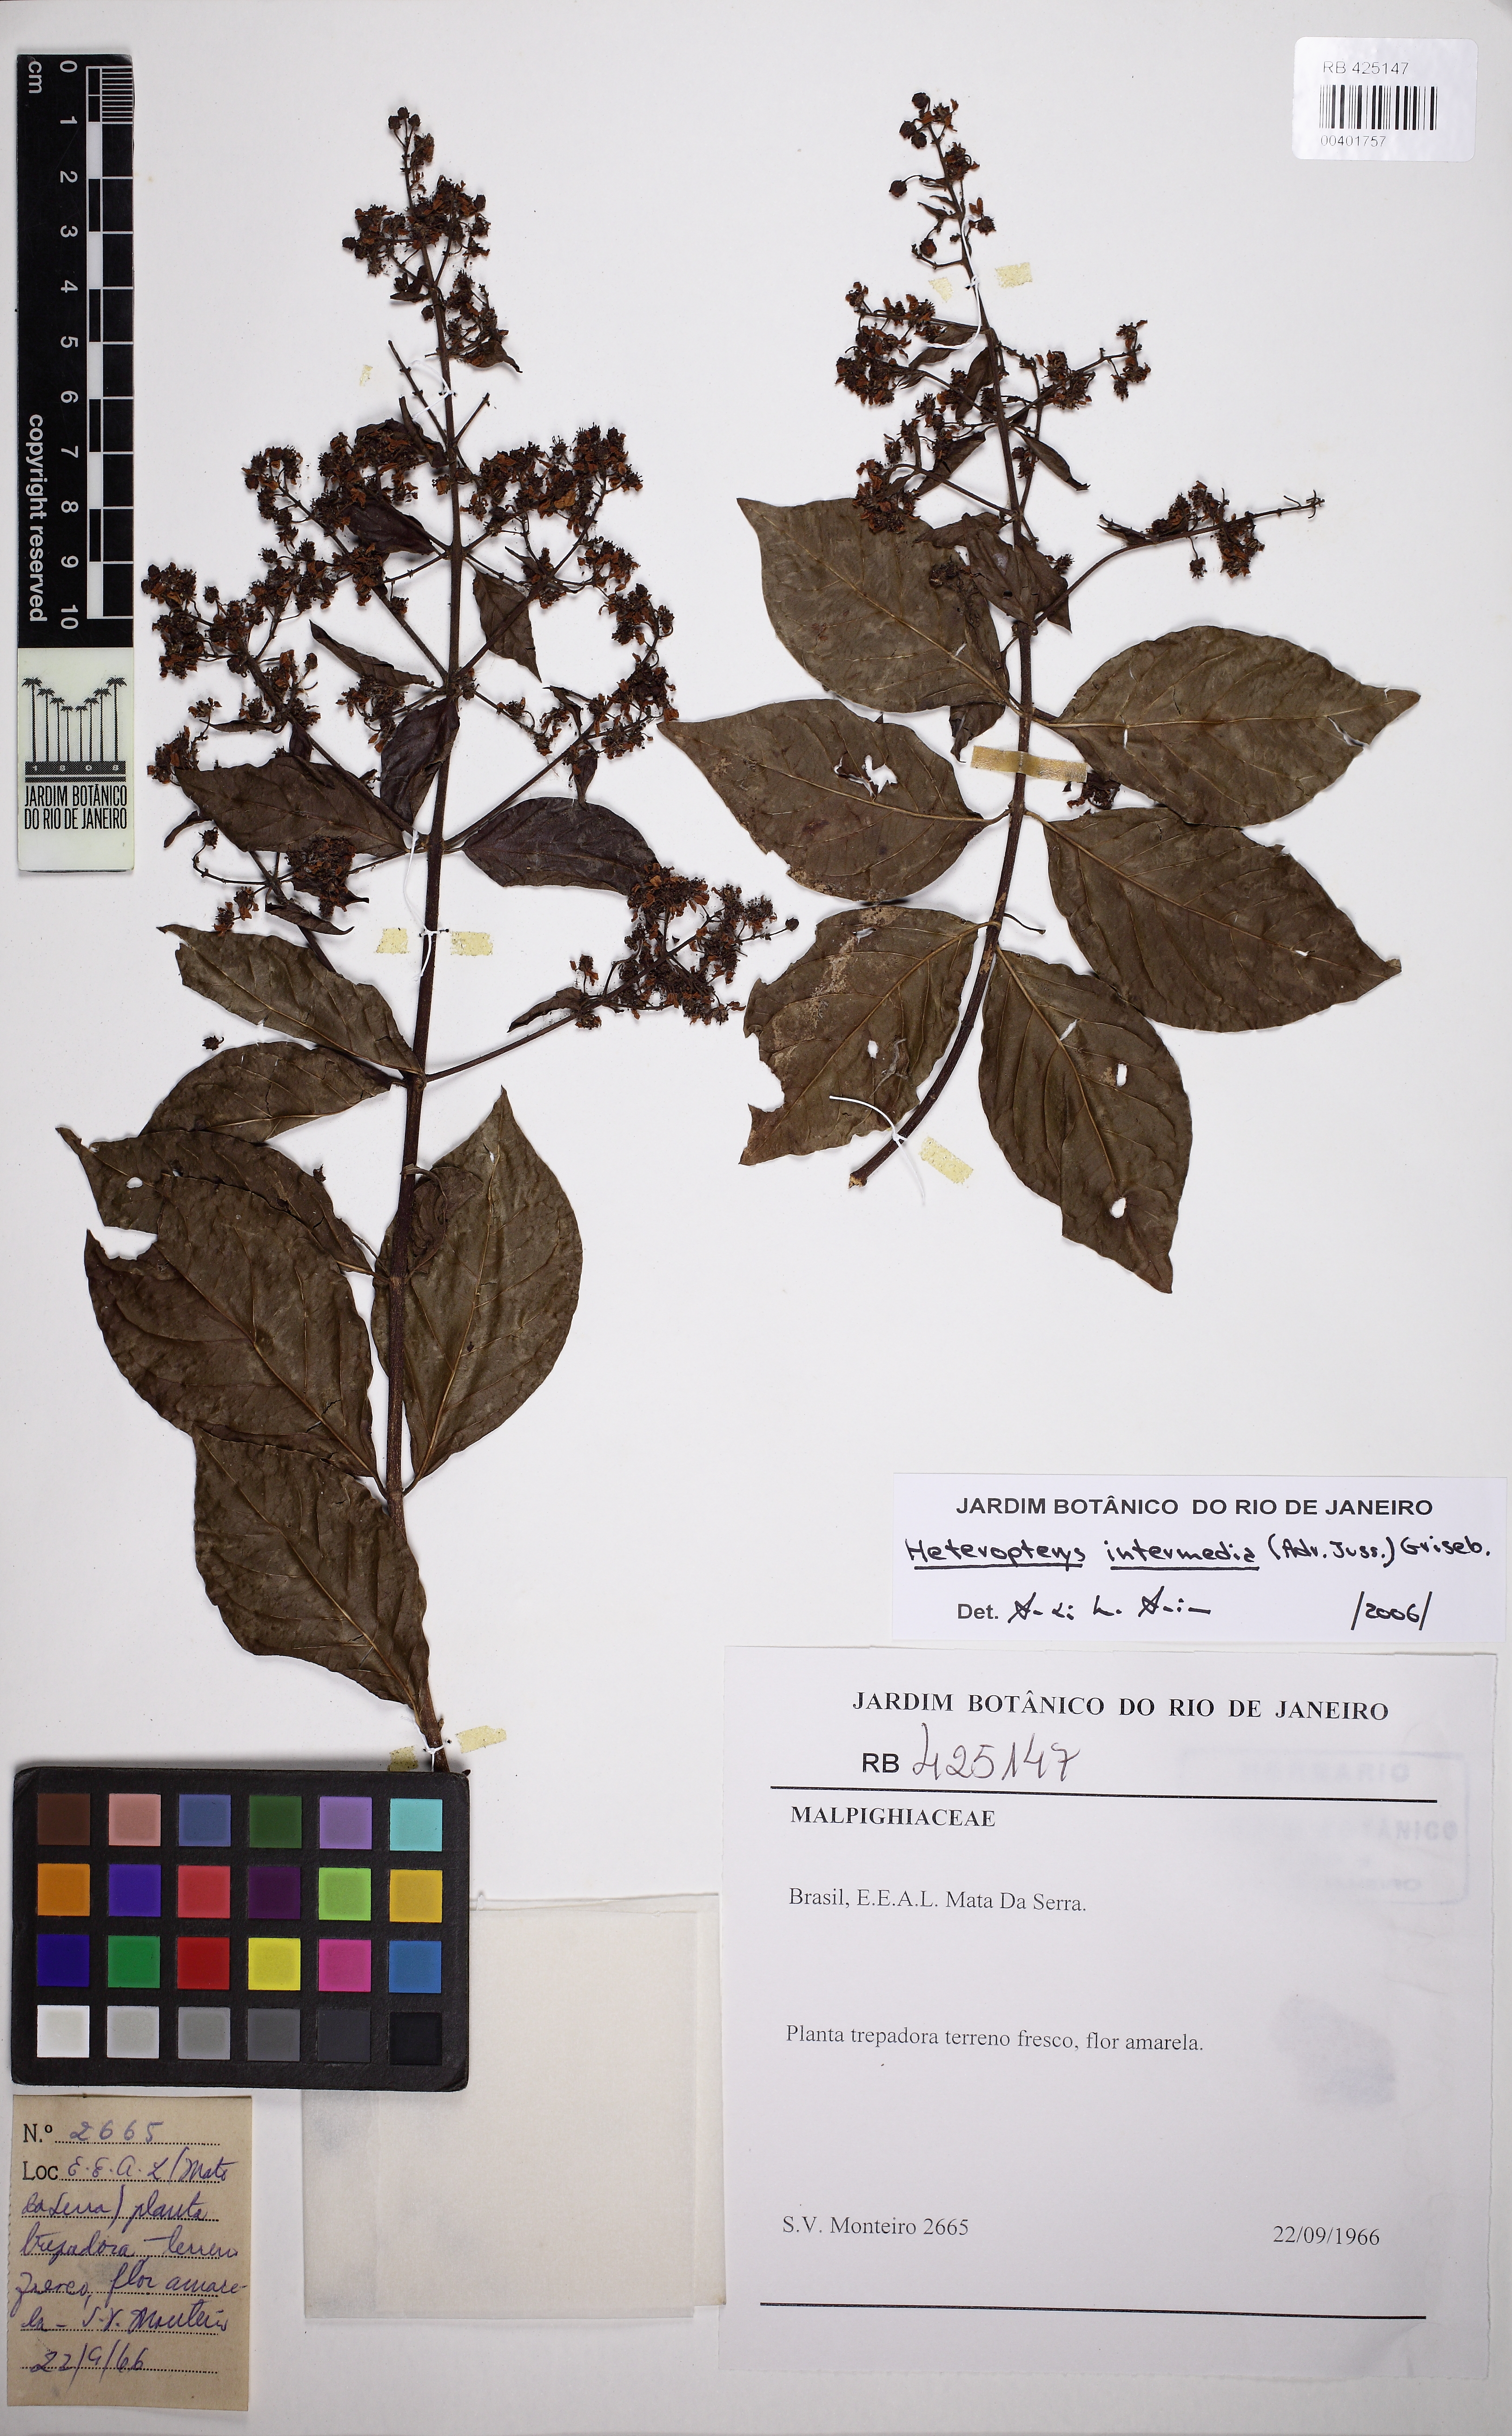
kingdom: Plantae
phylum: Tracheophyta
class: Magnoliopsida
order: Malpighiales
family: Malpighiaceae
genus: Heteropterys
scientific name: Heteropterys intermedia
